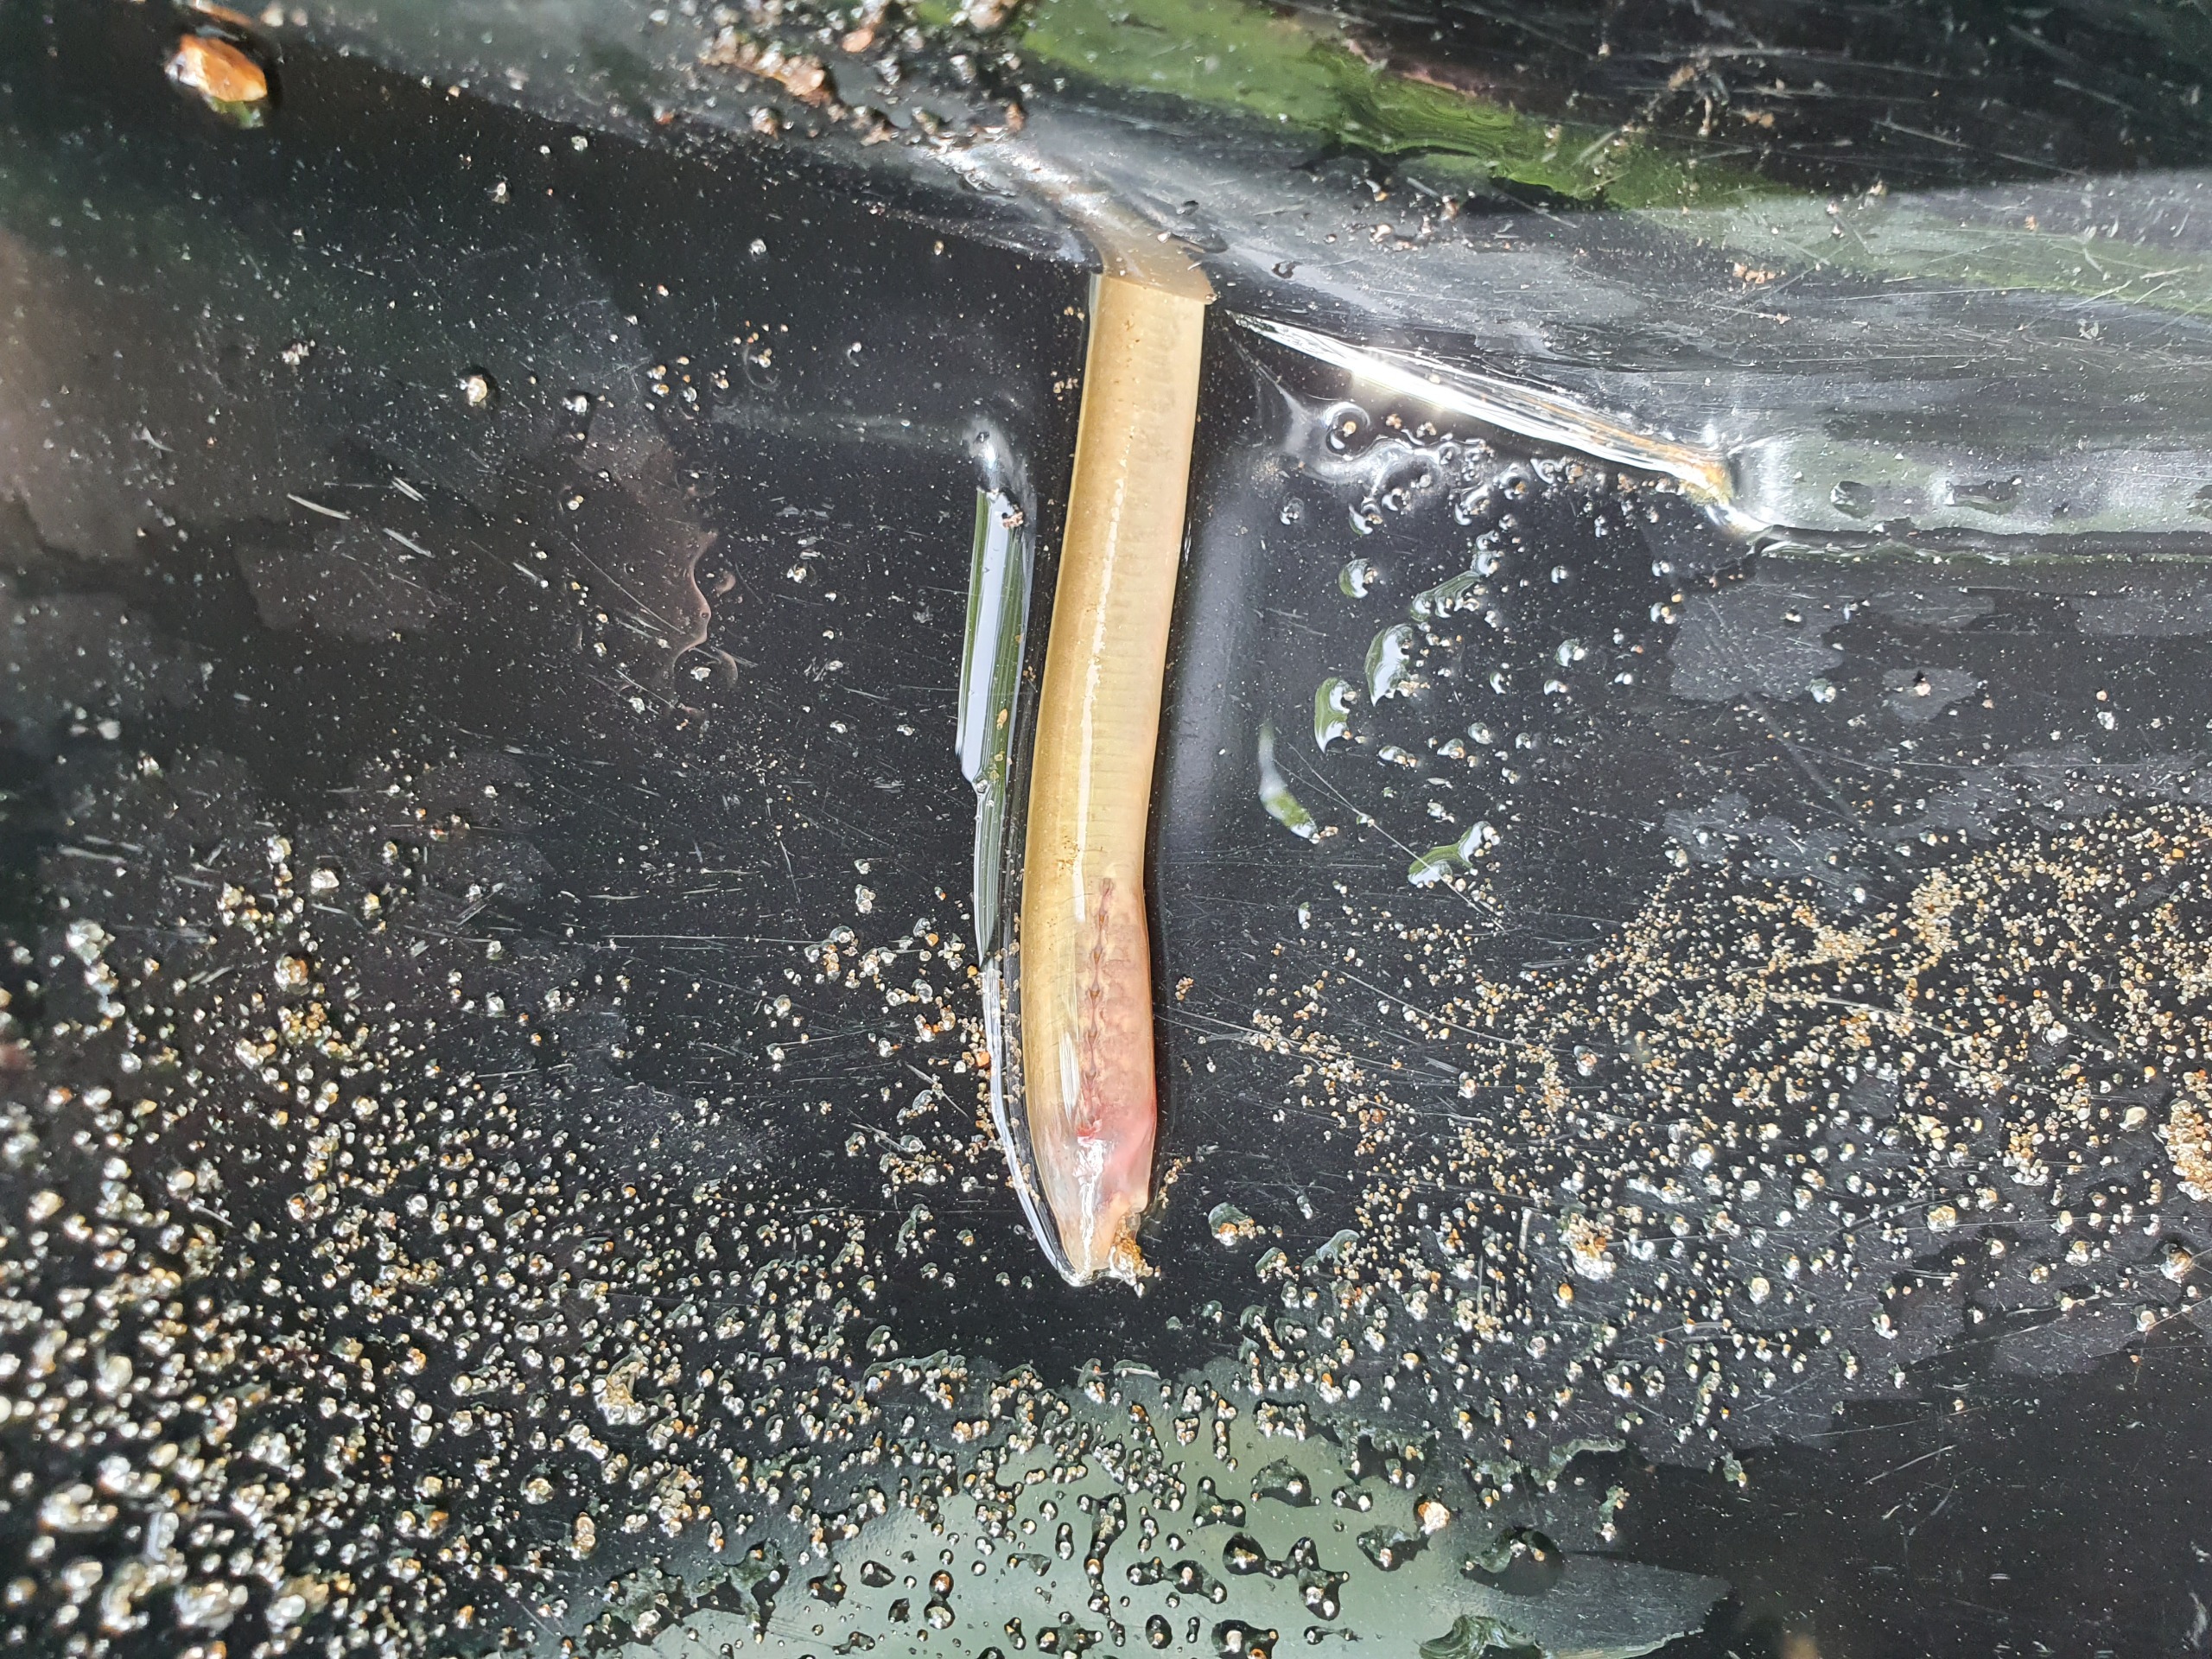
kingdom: Animalia
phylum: Chordata
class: Petromyzonti
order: Petromyzontiformes
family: Petromyzontidae
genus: Lampetra
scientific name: Lampetra planeri
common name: Bæklampret
